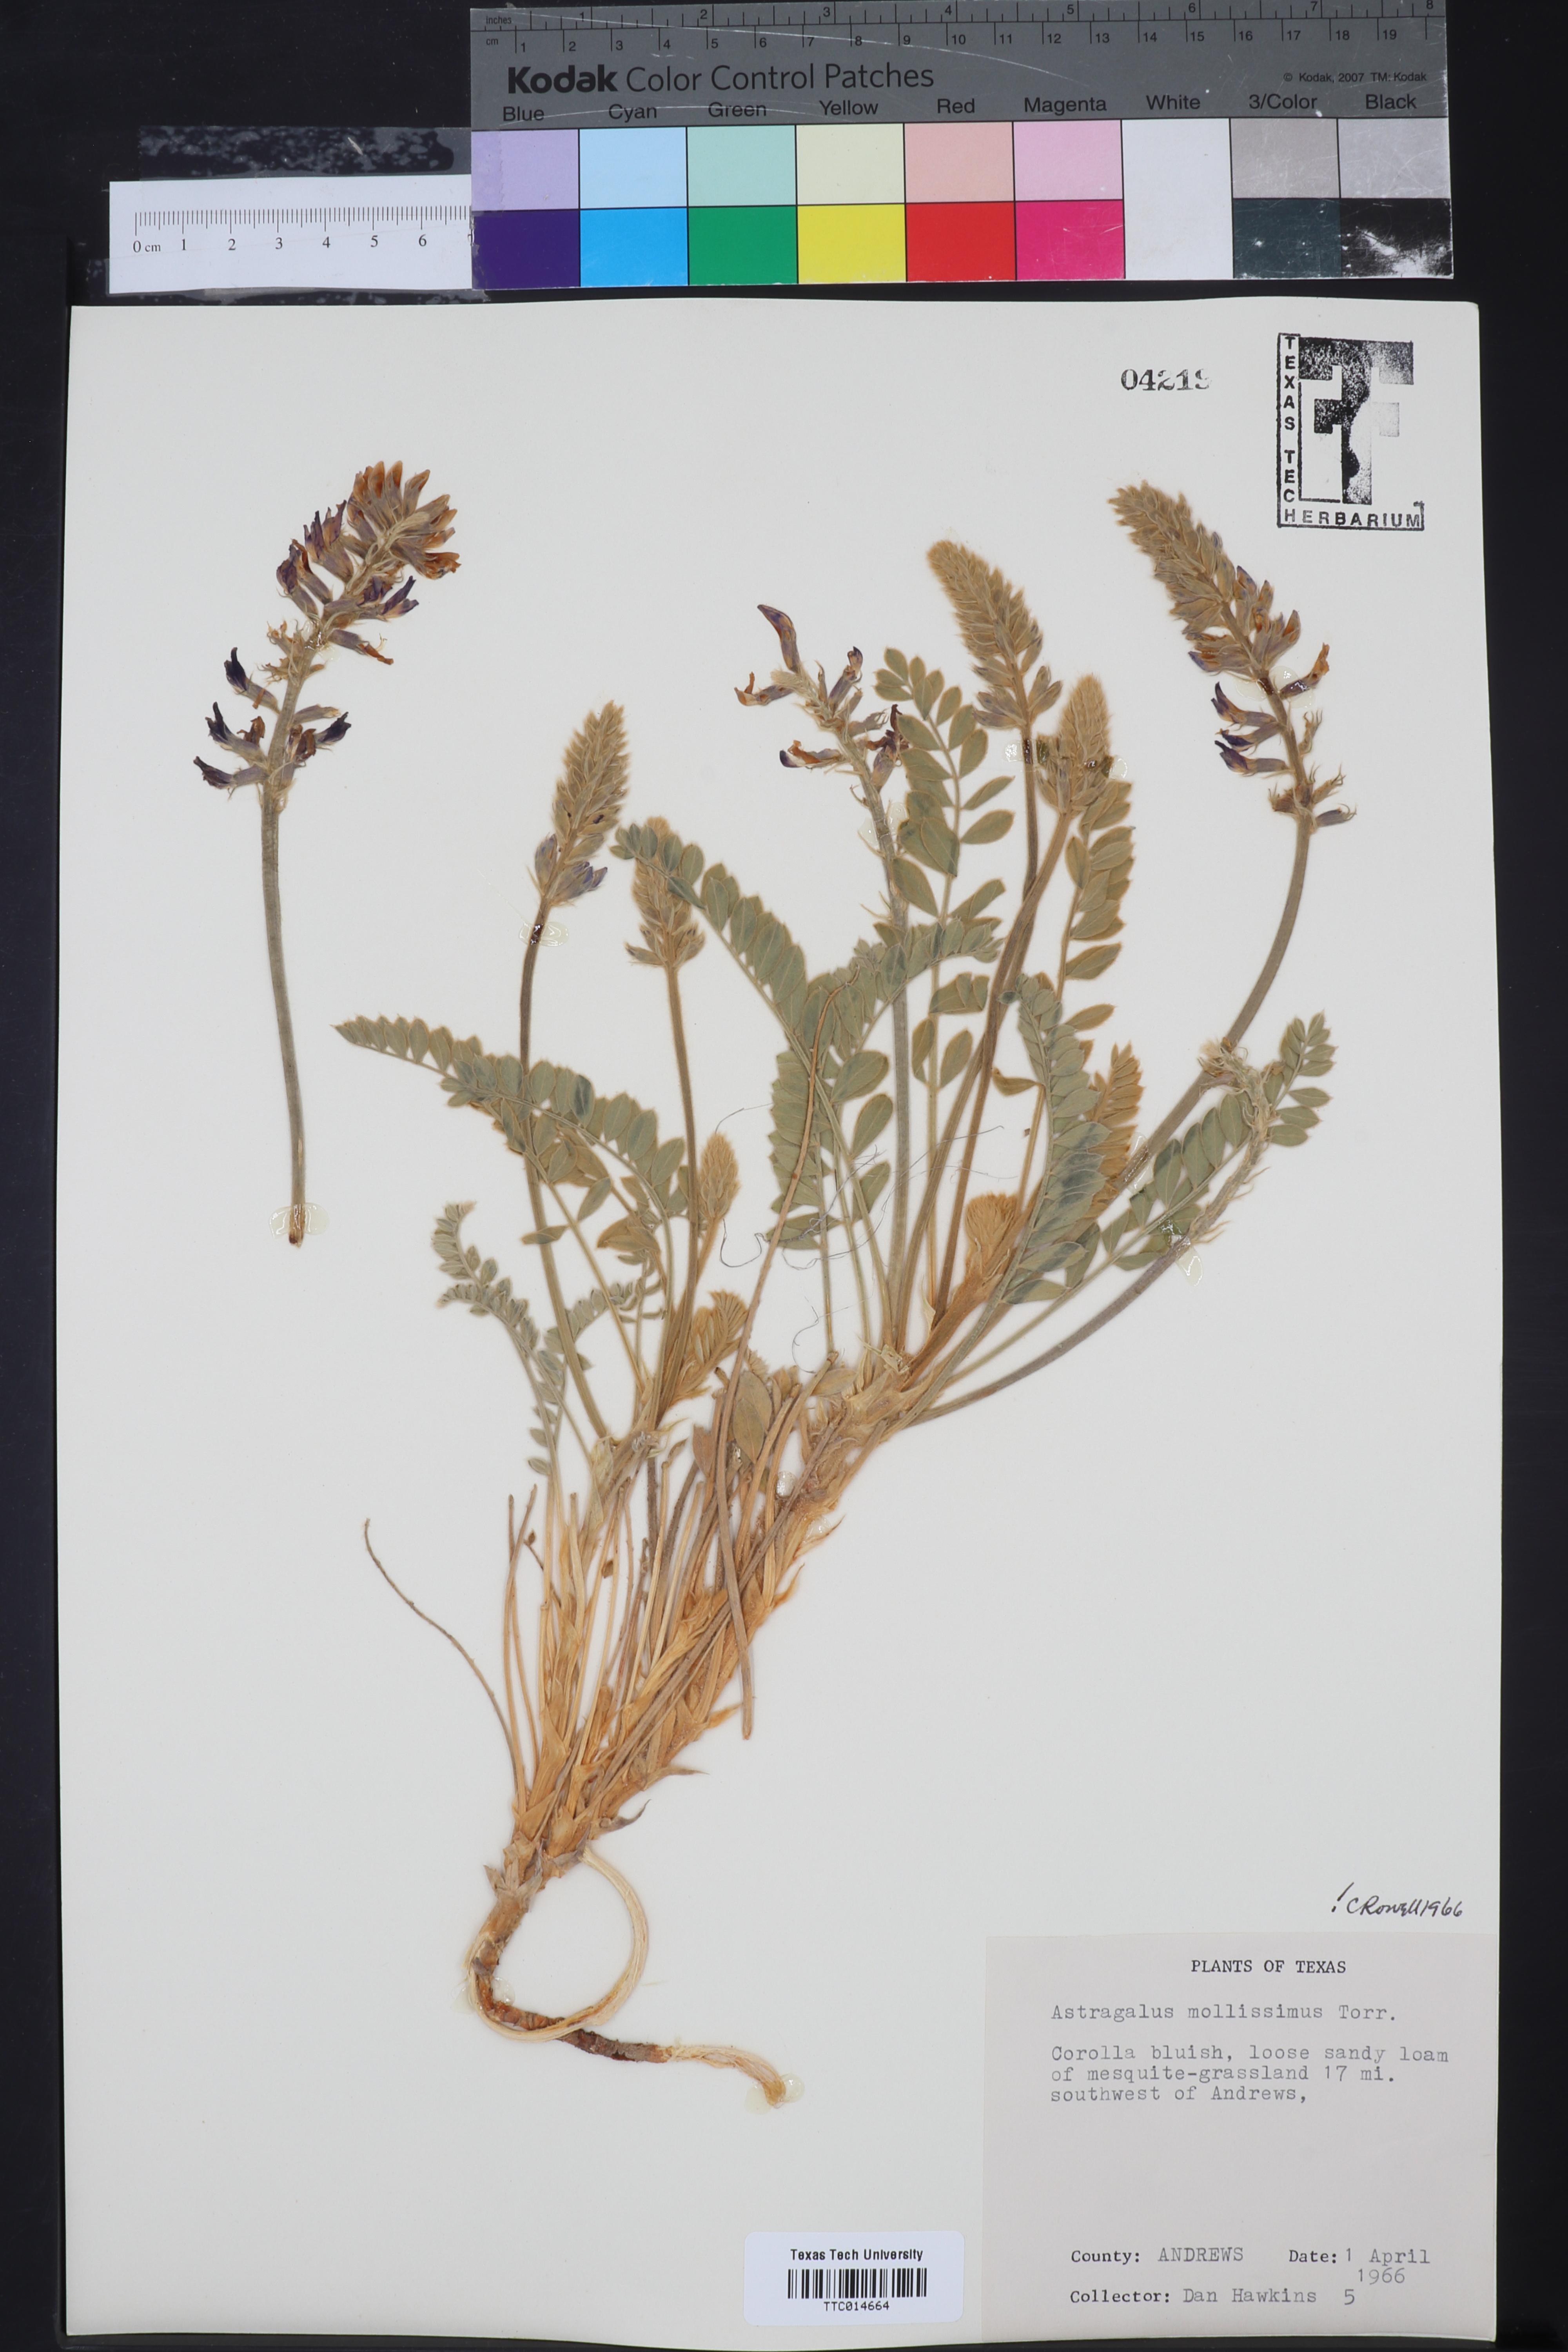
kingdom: Plantae
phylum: Tracheophyta
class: Magnoliopsida
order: Fabales
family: Fabaceae
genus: Astragalus
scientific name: Astragalus mollissimus
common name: Woolly locoweed
